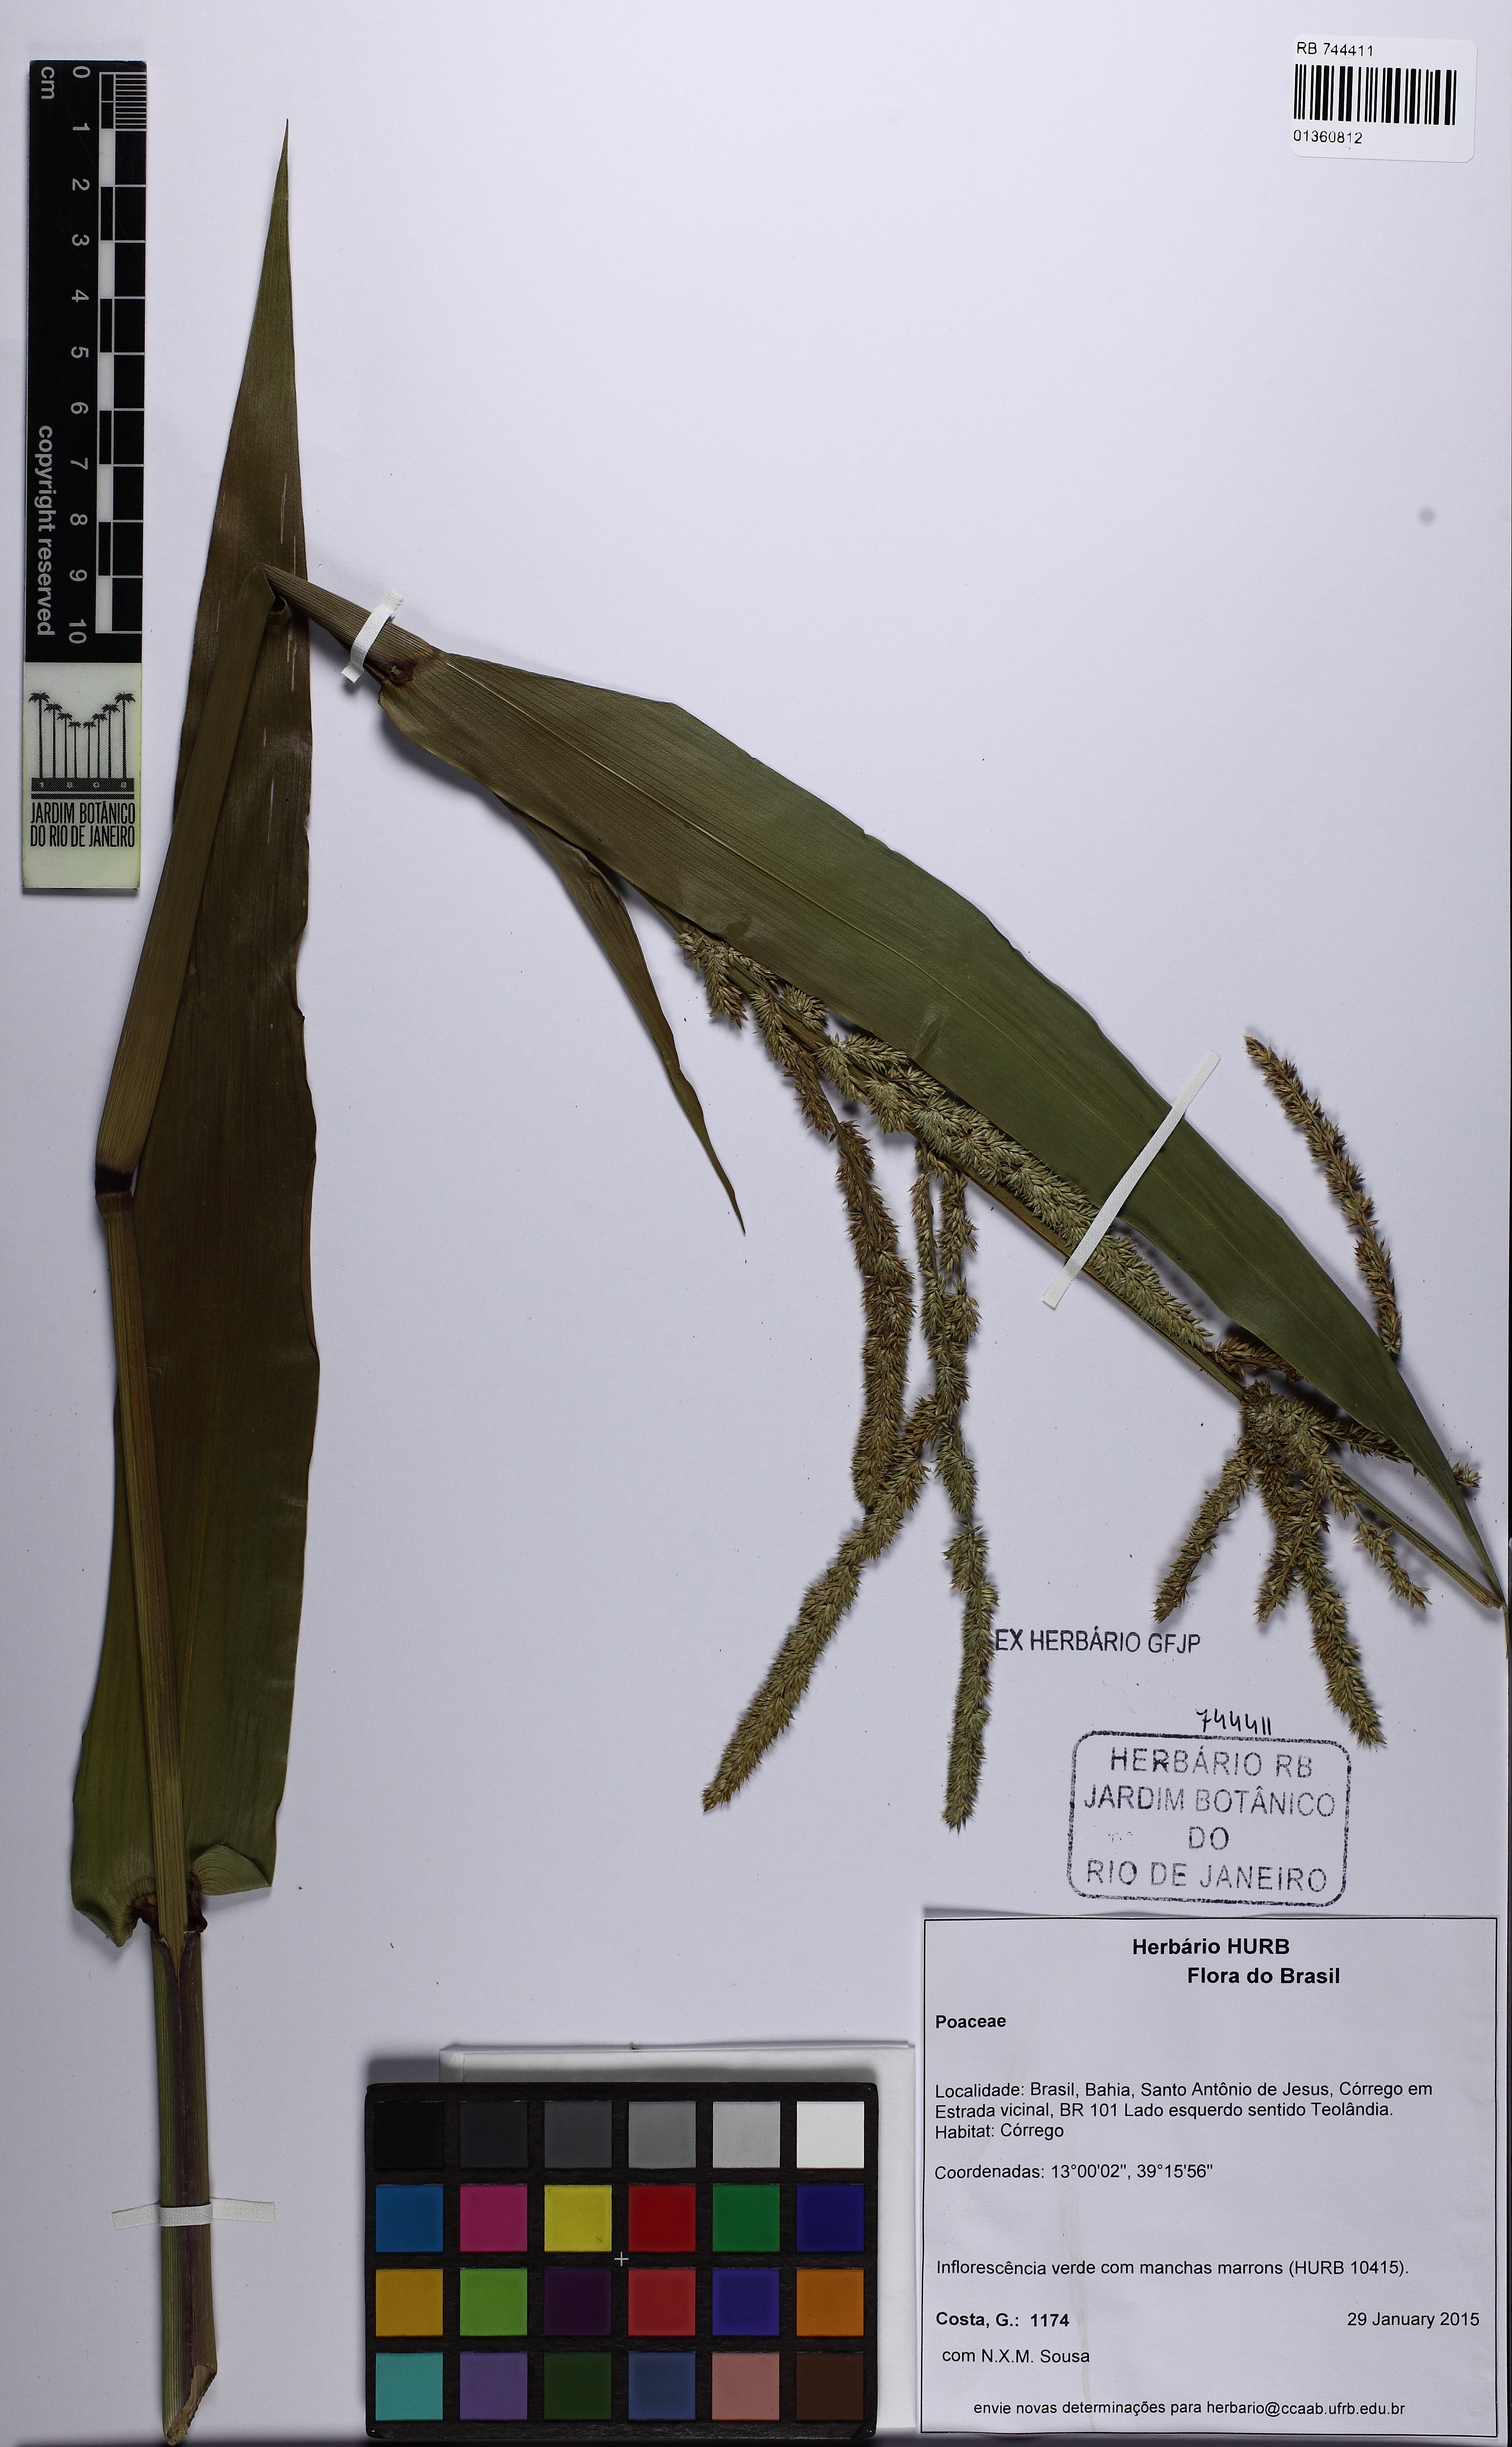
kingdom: Plantae
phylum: Tracheophyta
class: Liliopsida
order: Poales
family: Poaceae
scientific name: Poaceae
